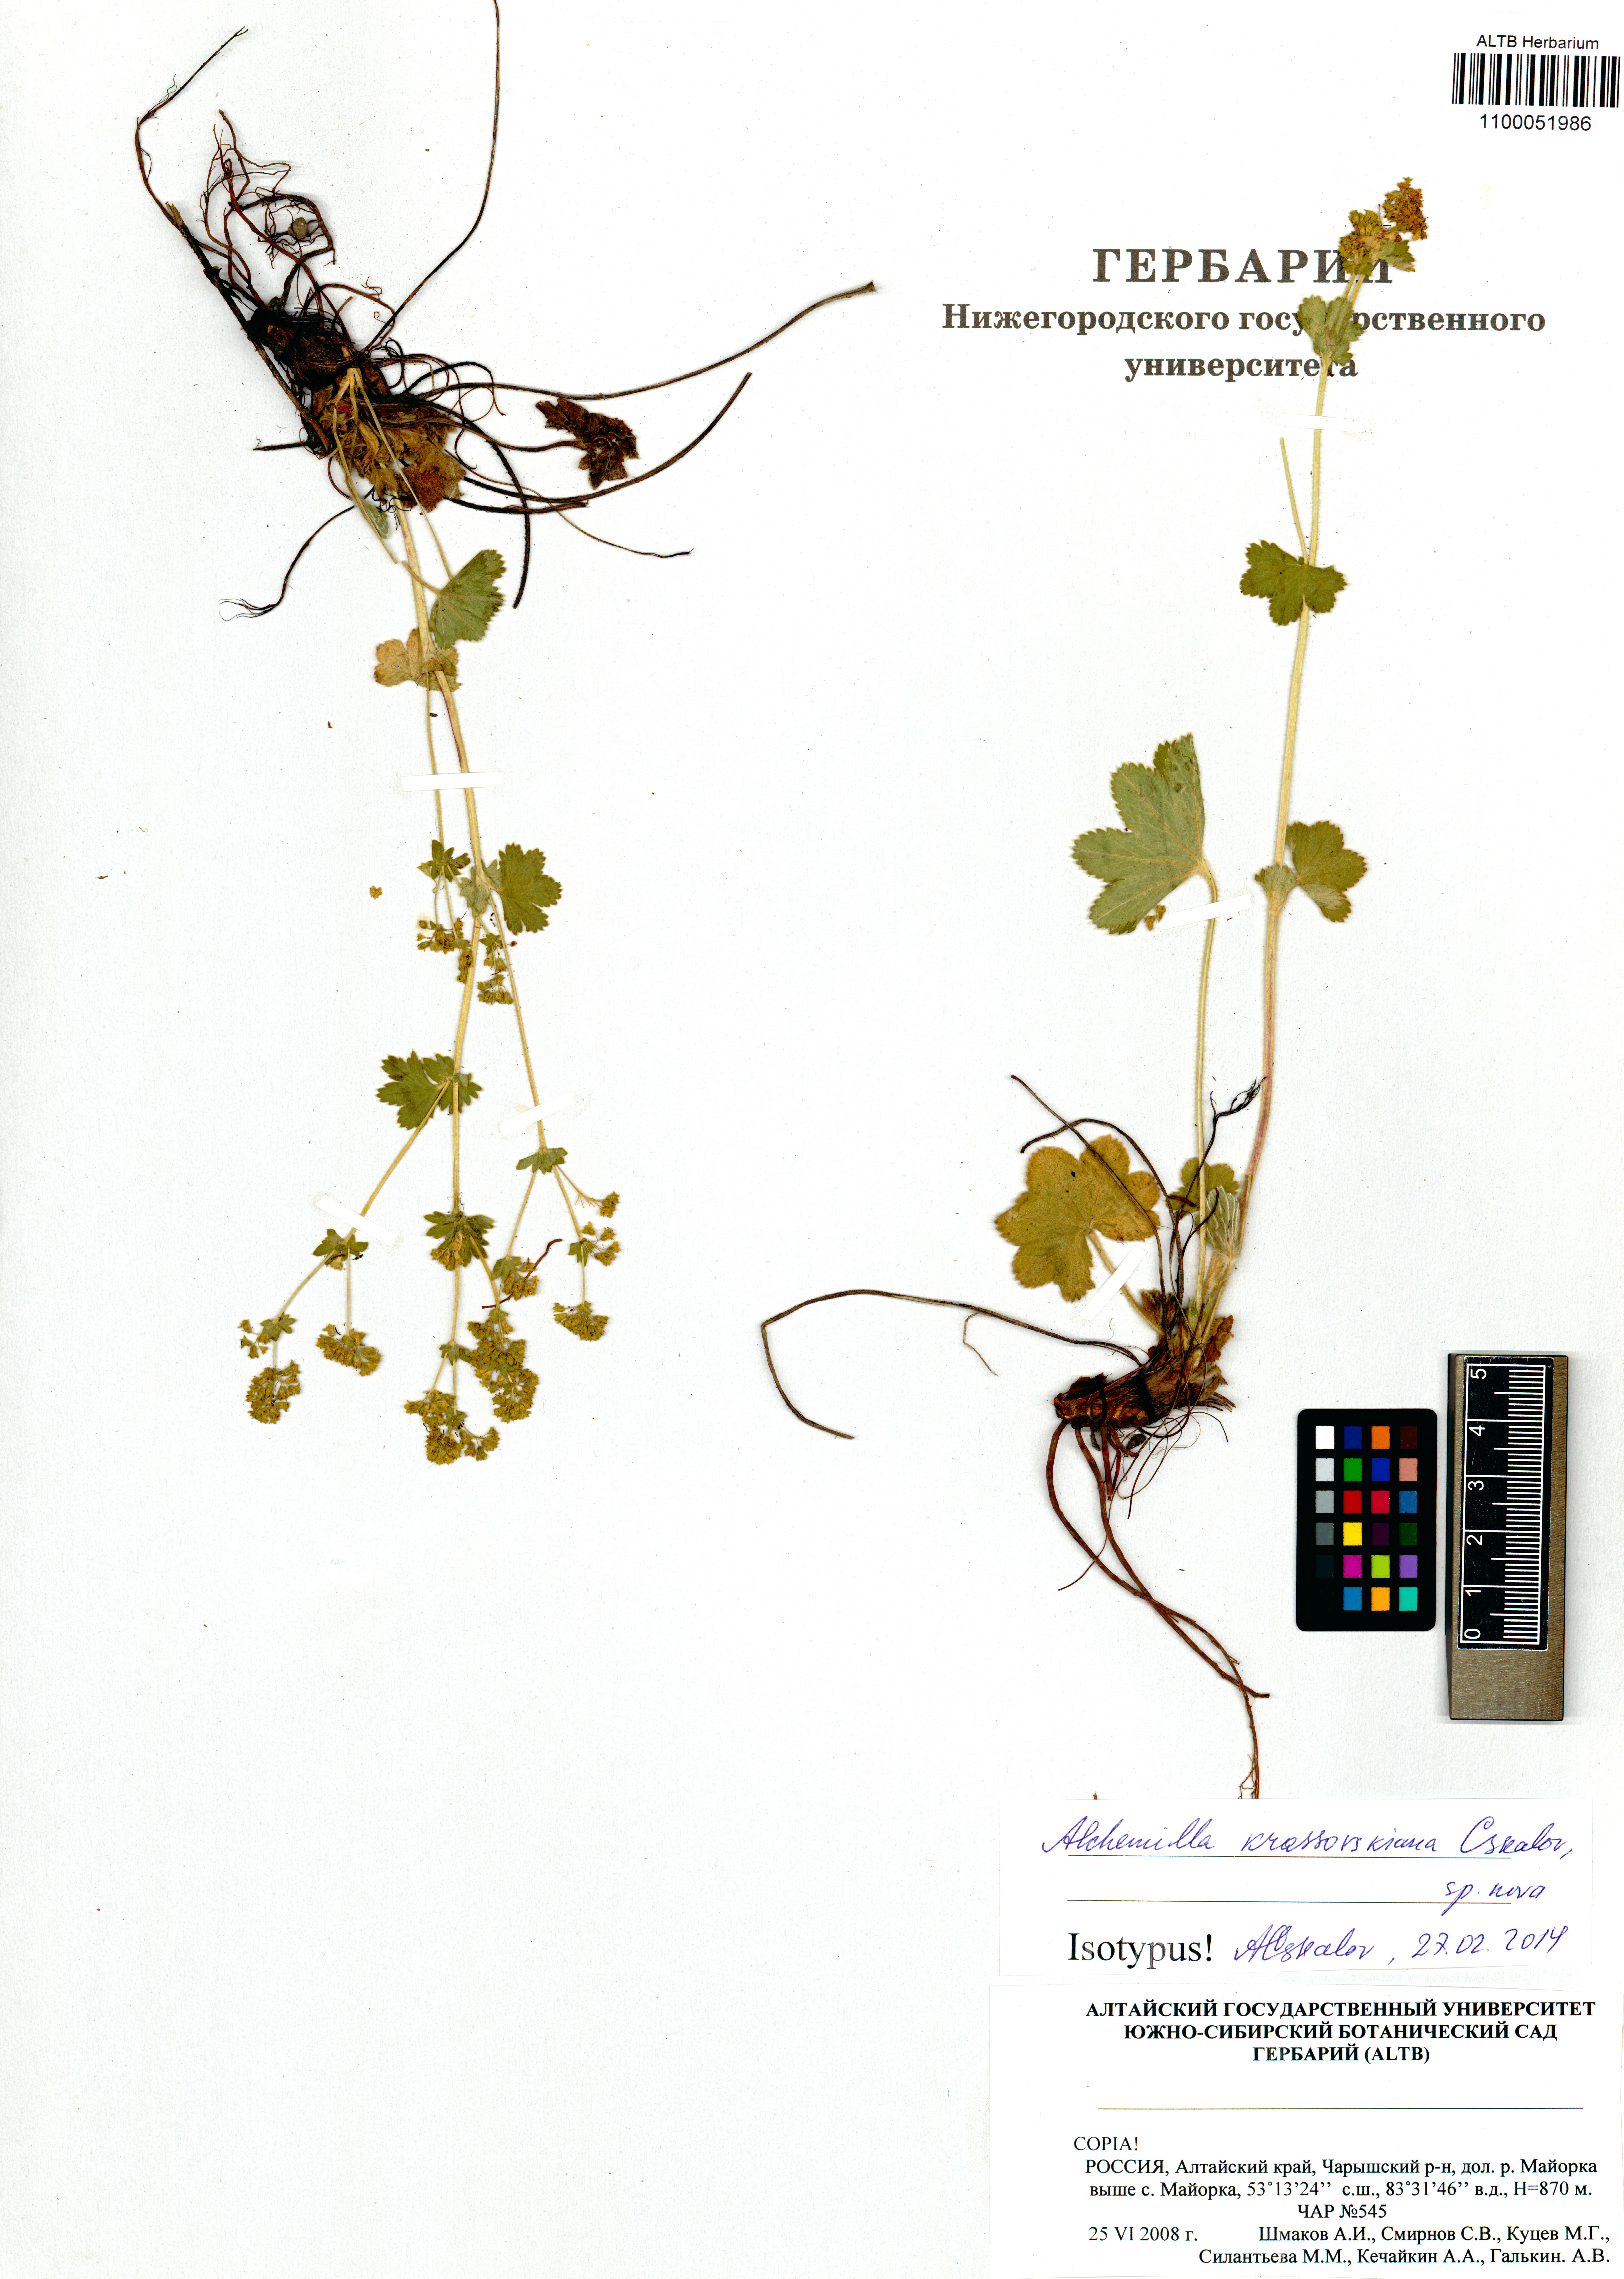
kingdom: Plantae
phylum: Tracheophyta
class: Magnoliopsida
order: Rosales
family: Rosaceae
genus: Alchemilla
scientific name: Alchemilla krassovskiana
